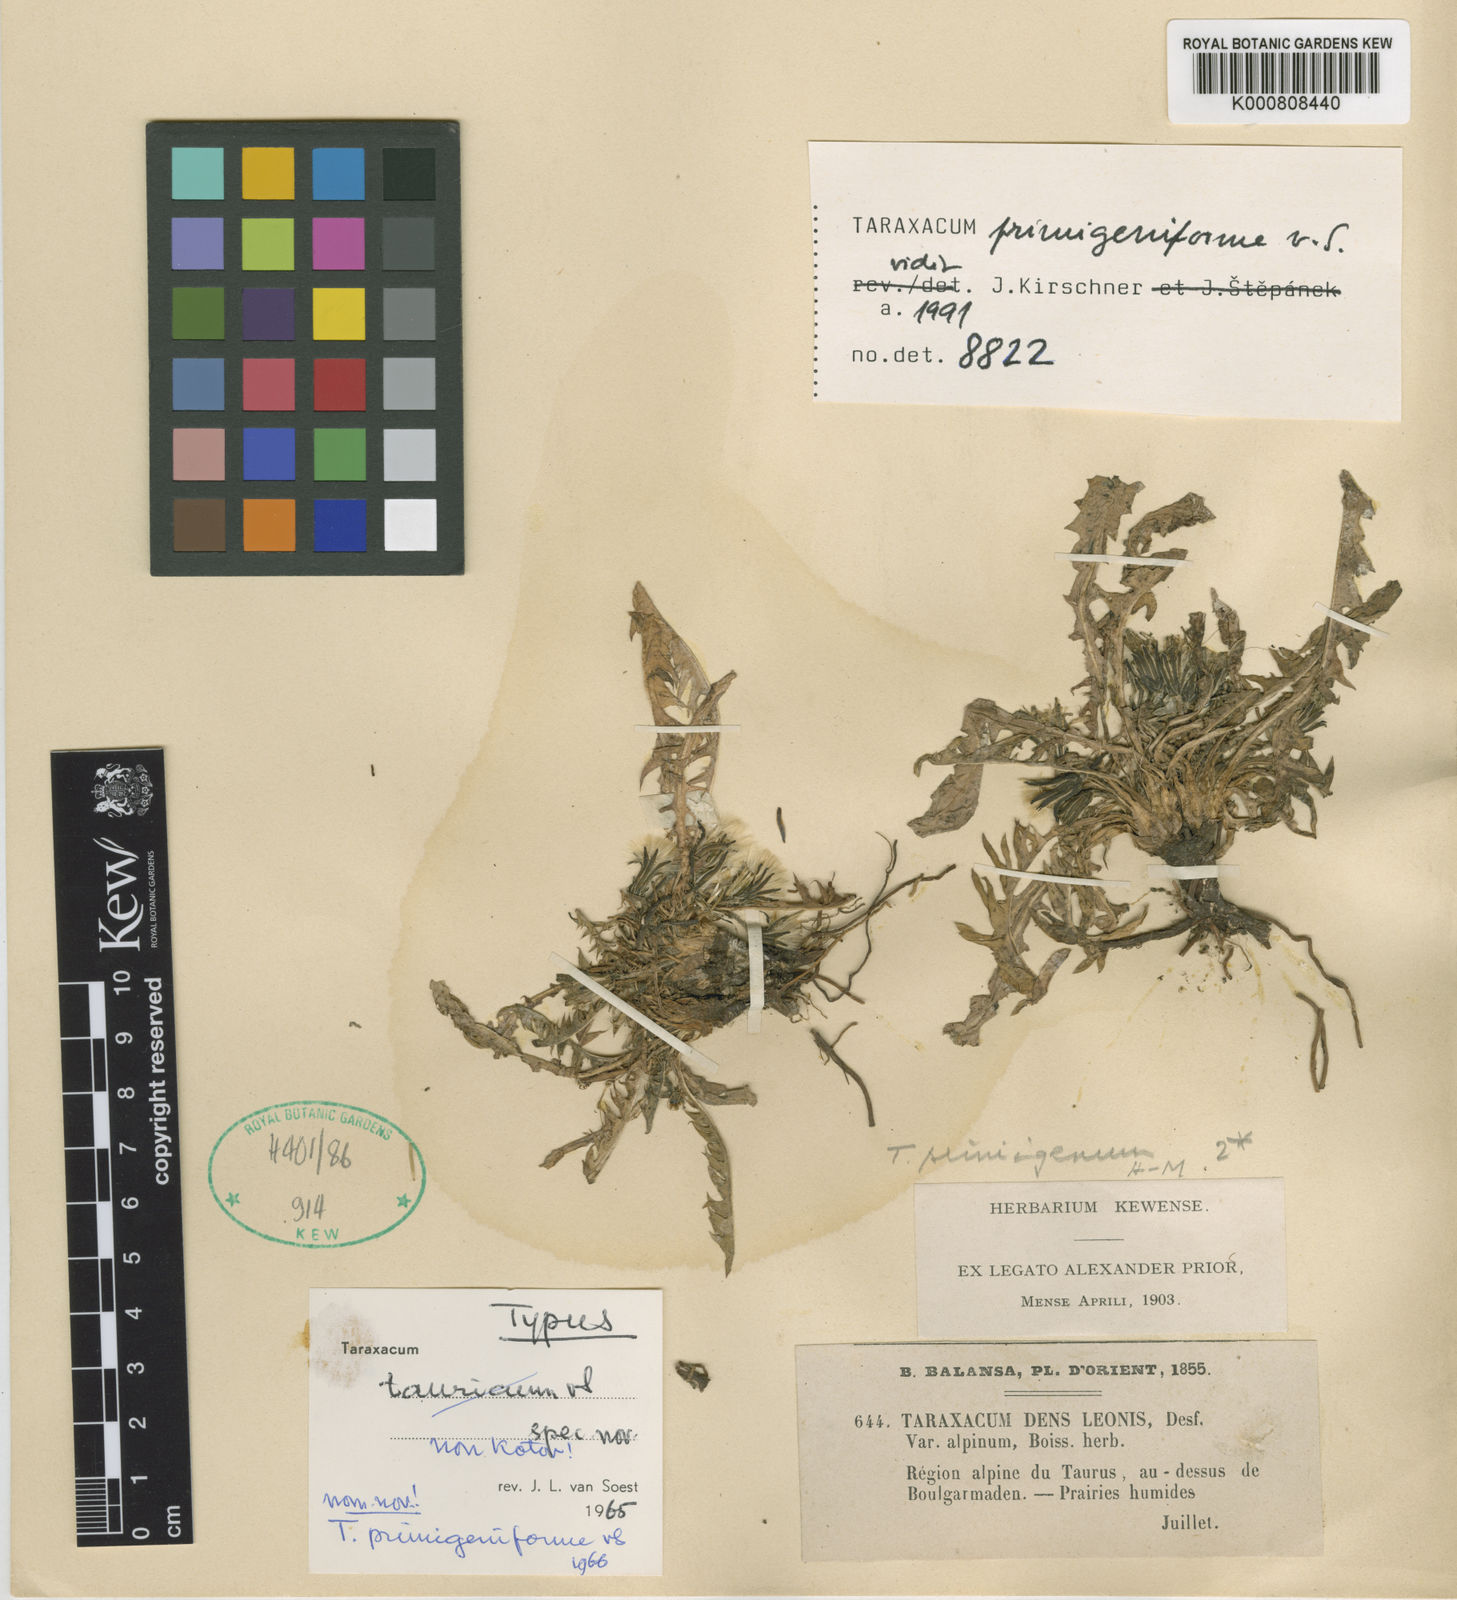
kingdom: Plantae
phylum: Tracheophyta
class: Magnoliopsida
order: Asterales
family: Asteraceae
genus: Taraxacum
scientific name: Taraxacum assemanii
